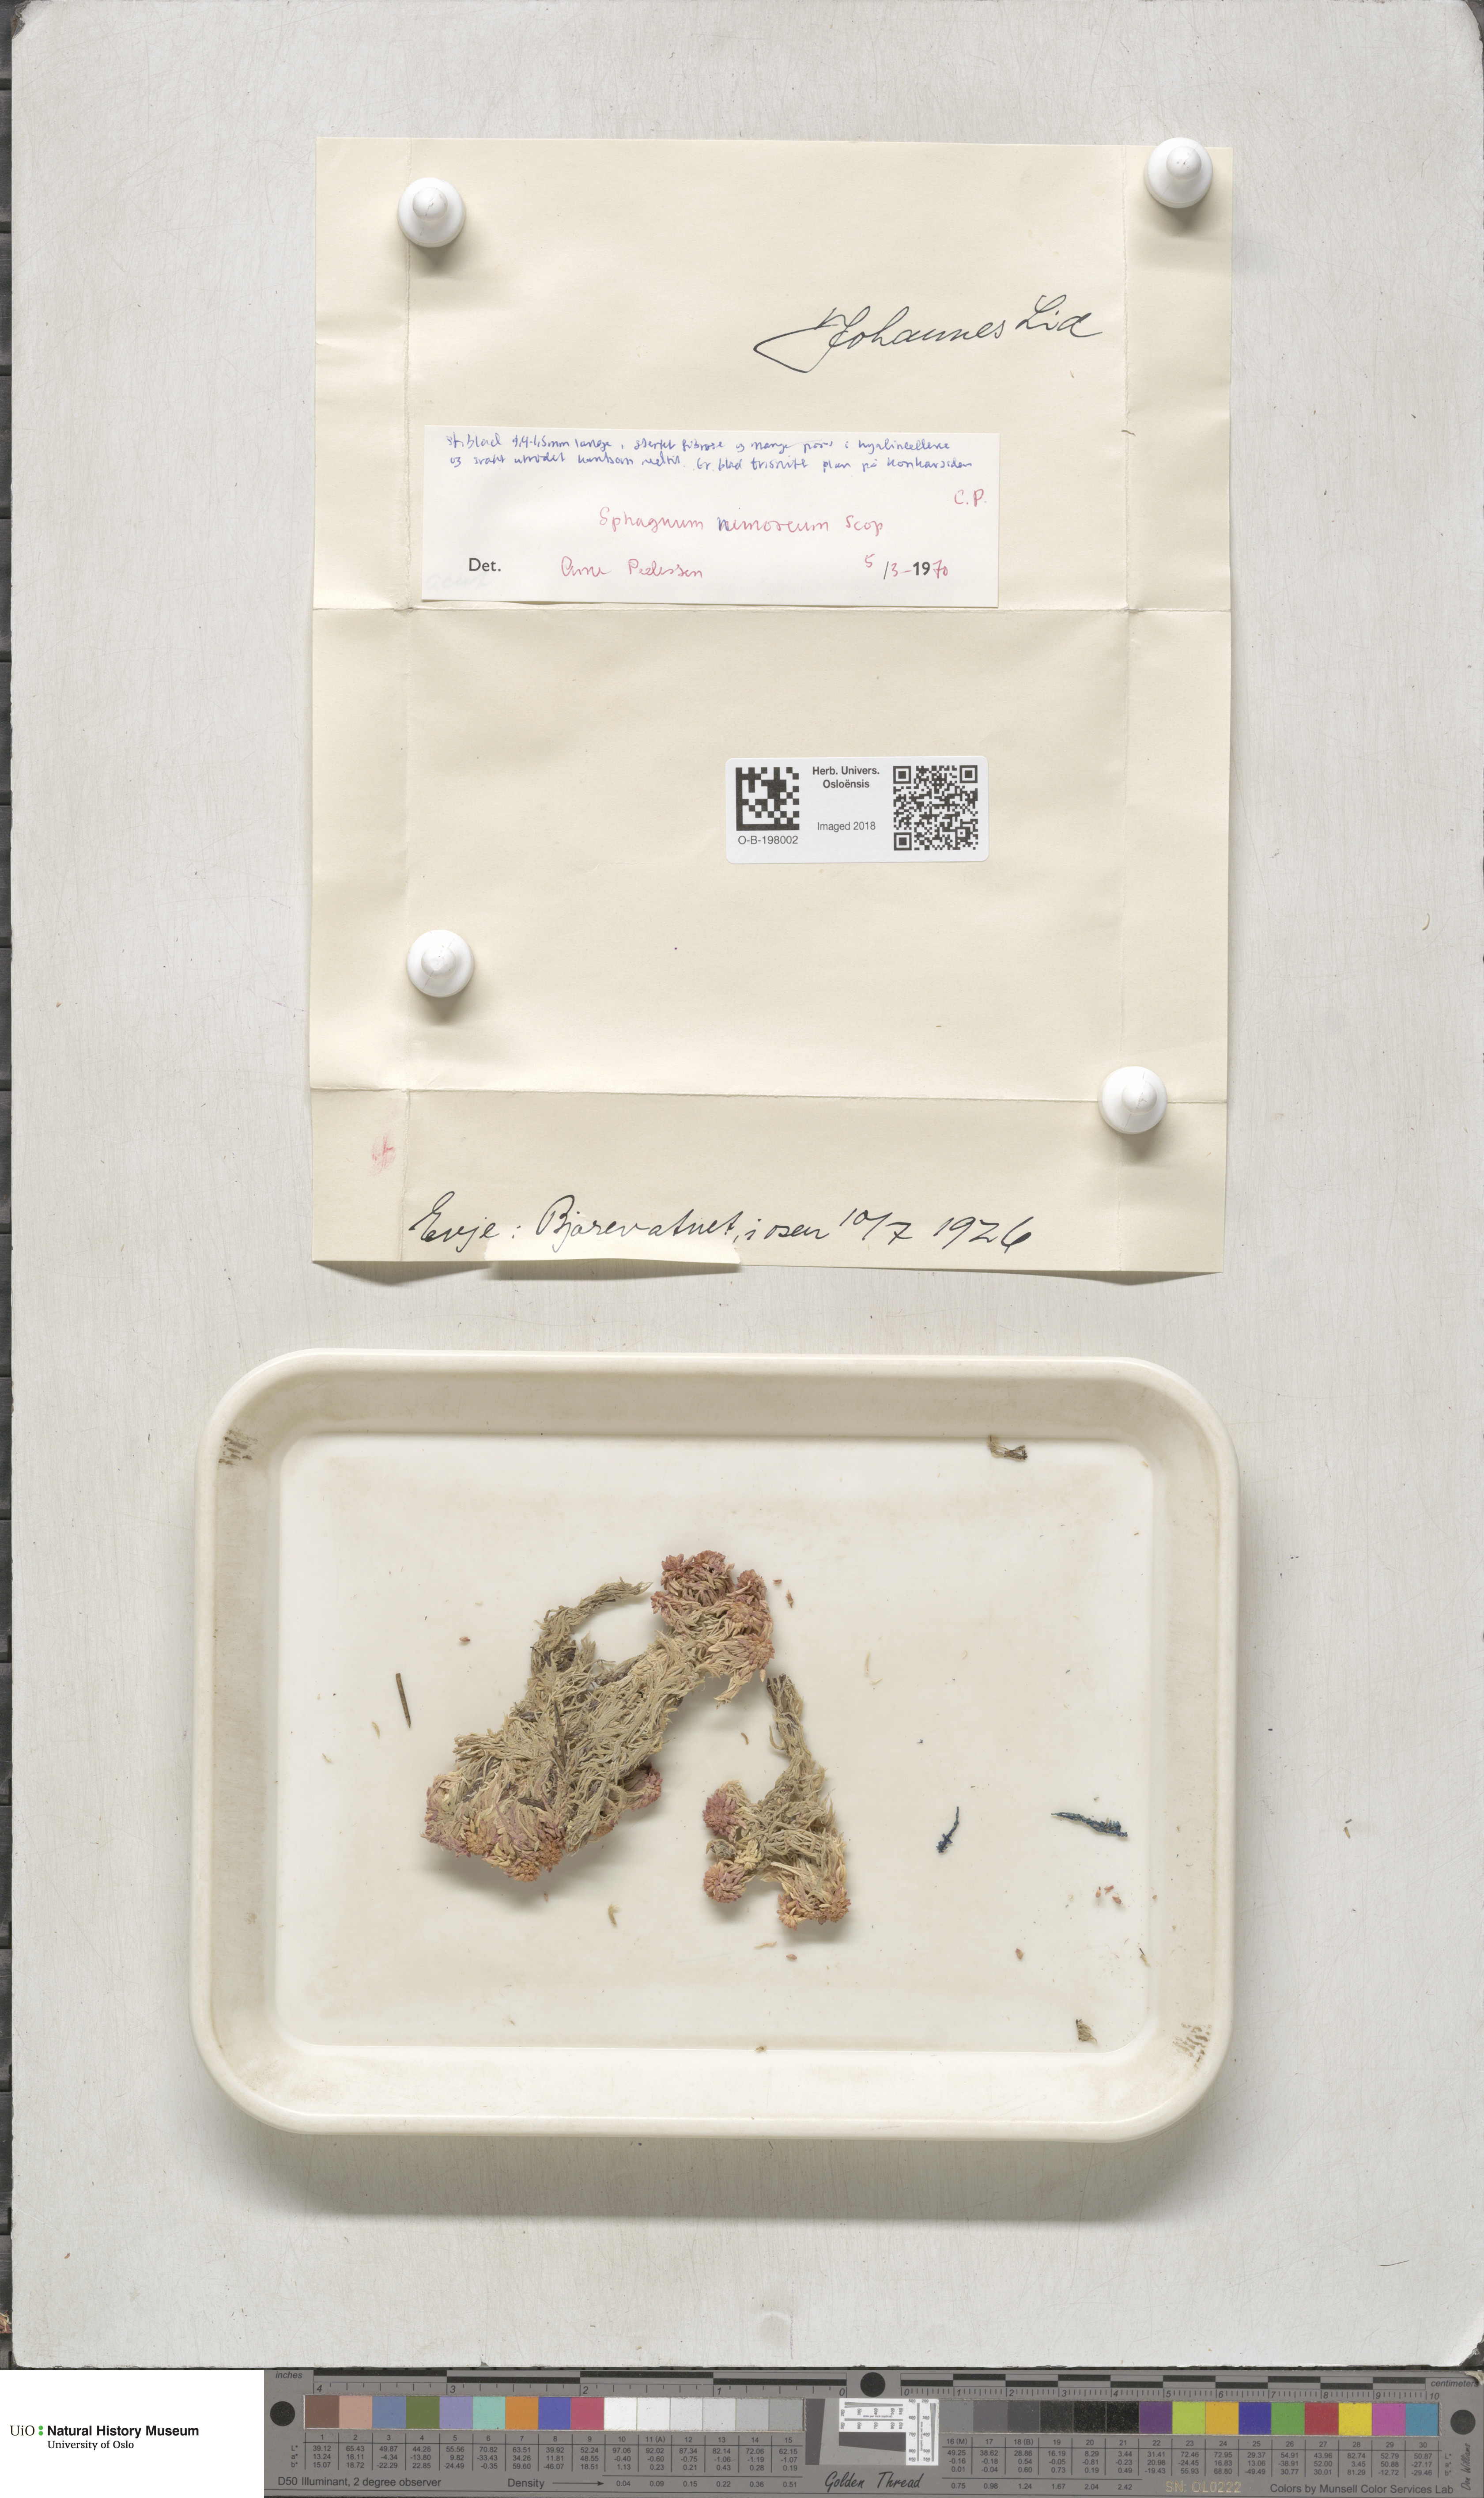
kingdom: Plantae
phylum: Bryophyta
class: Sphagnopsida
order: Sphagnales
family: Sphagnaceae
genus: Sphagnum
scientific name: Sphagnum capillifolium
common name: Small red peat moss
